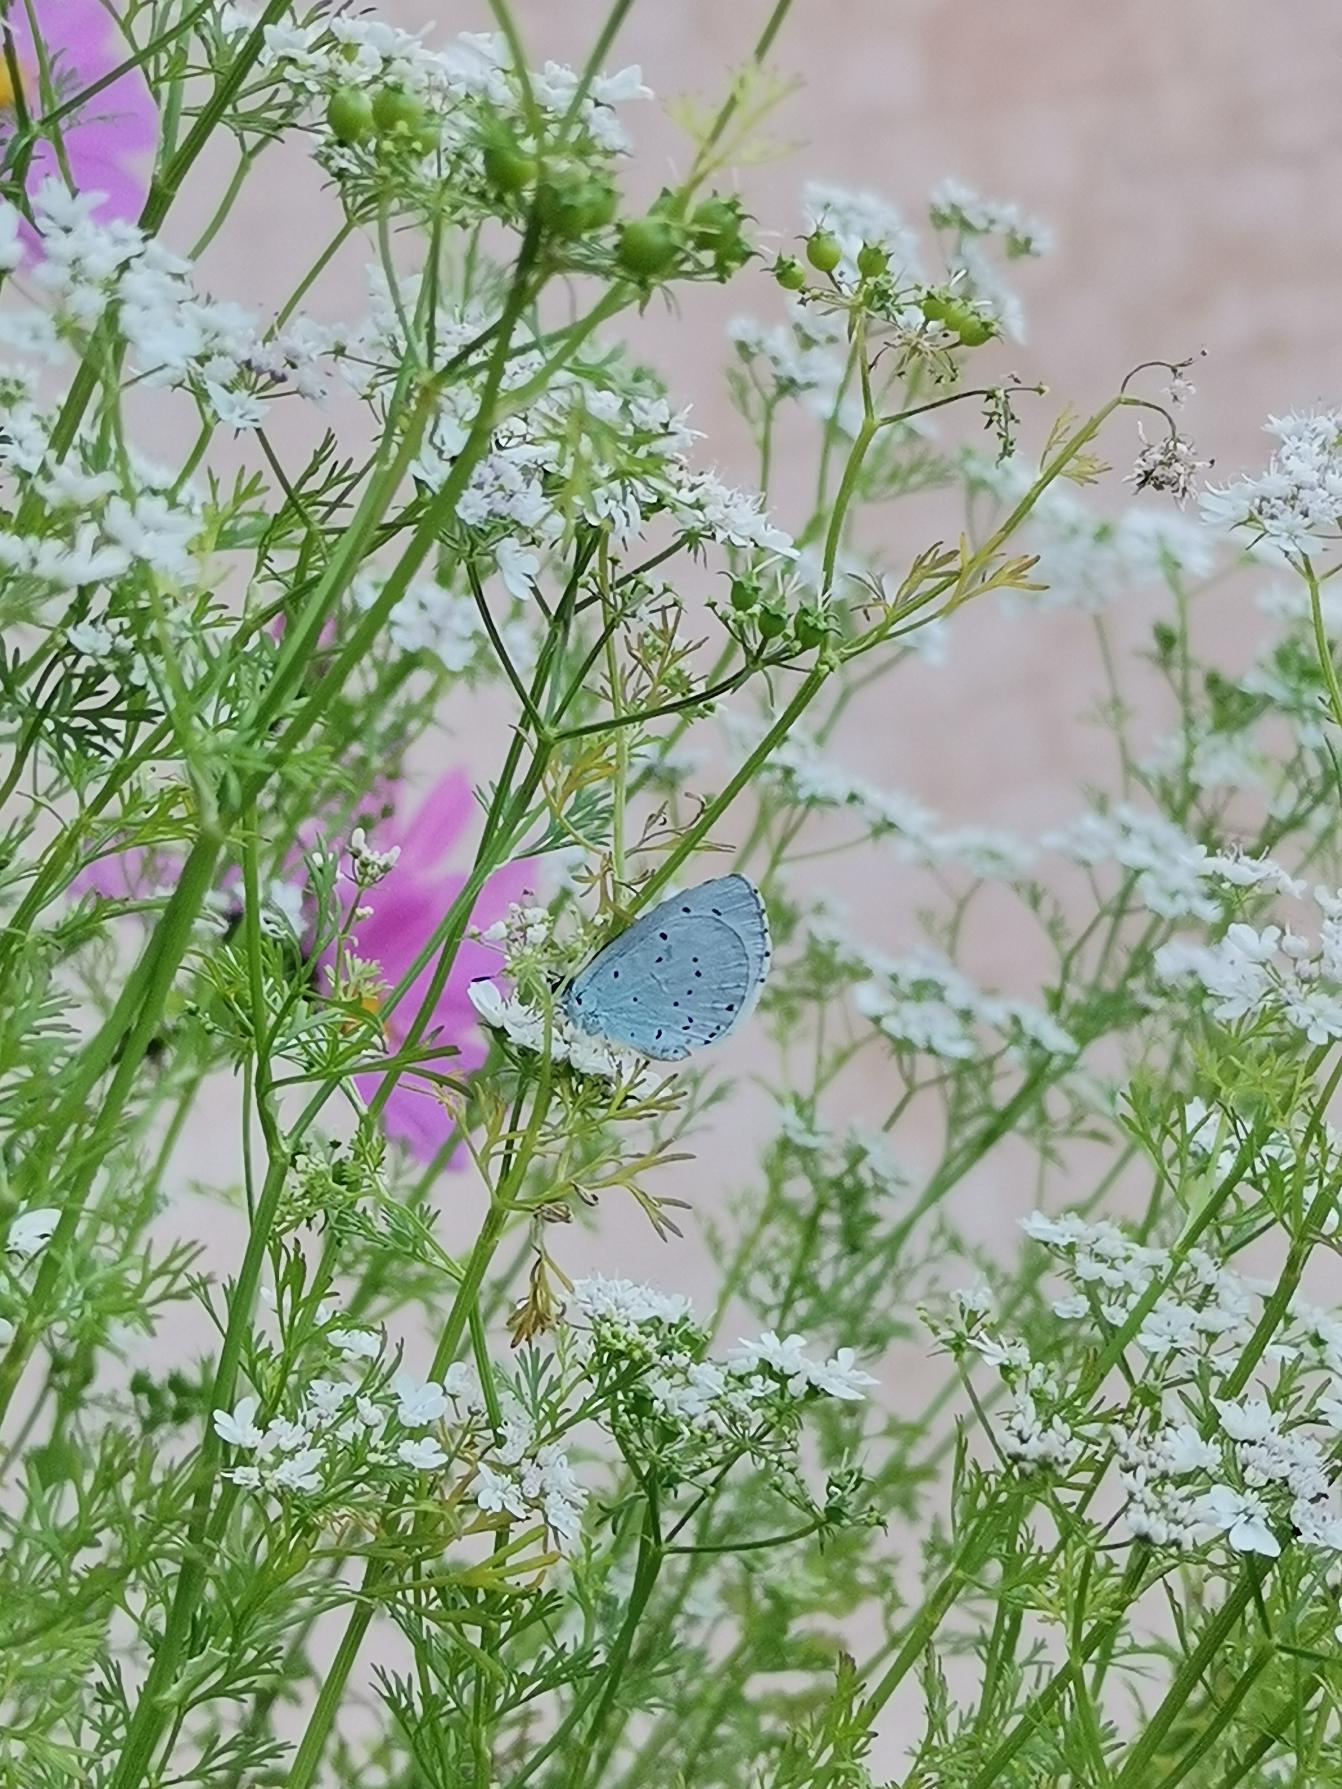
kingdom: Animalia
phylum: Arthropoda
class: Insecta
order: Lepidoptera
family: Lycaenidae
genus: Celastrina
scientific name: Celastrina argiolus
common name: Skovblåfugl
